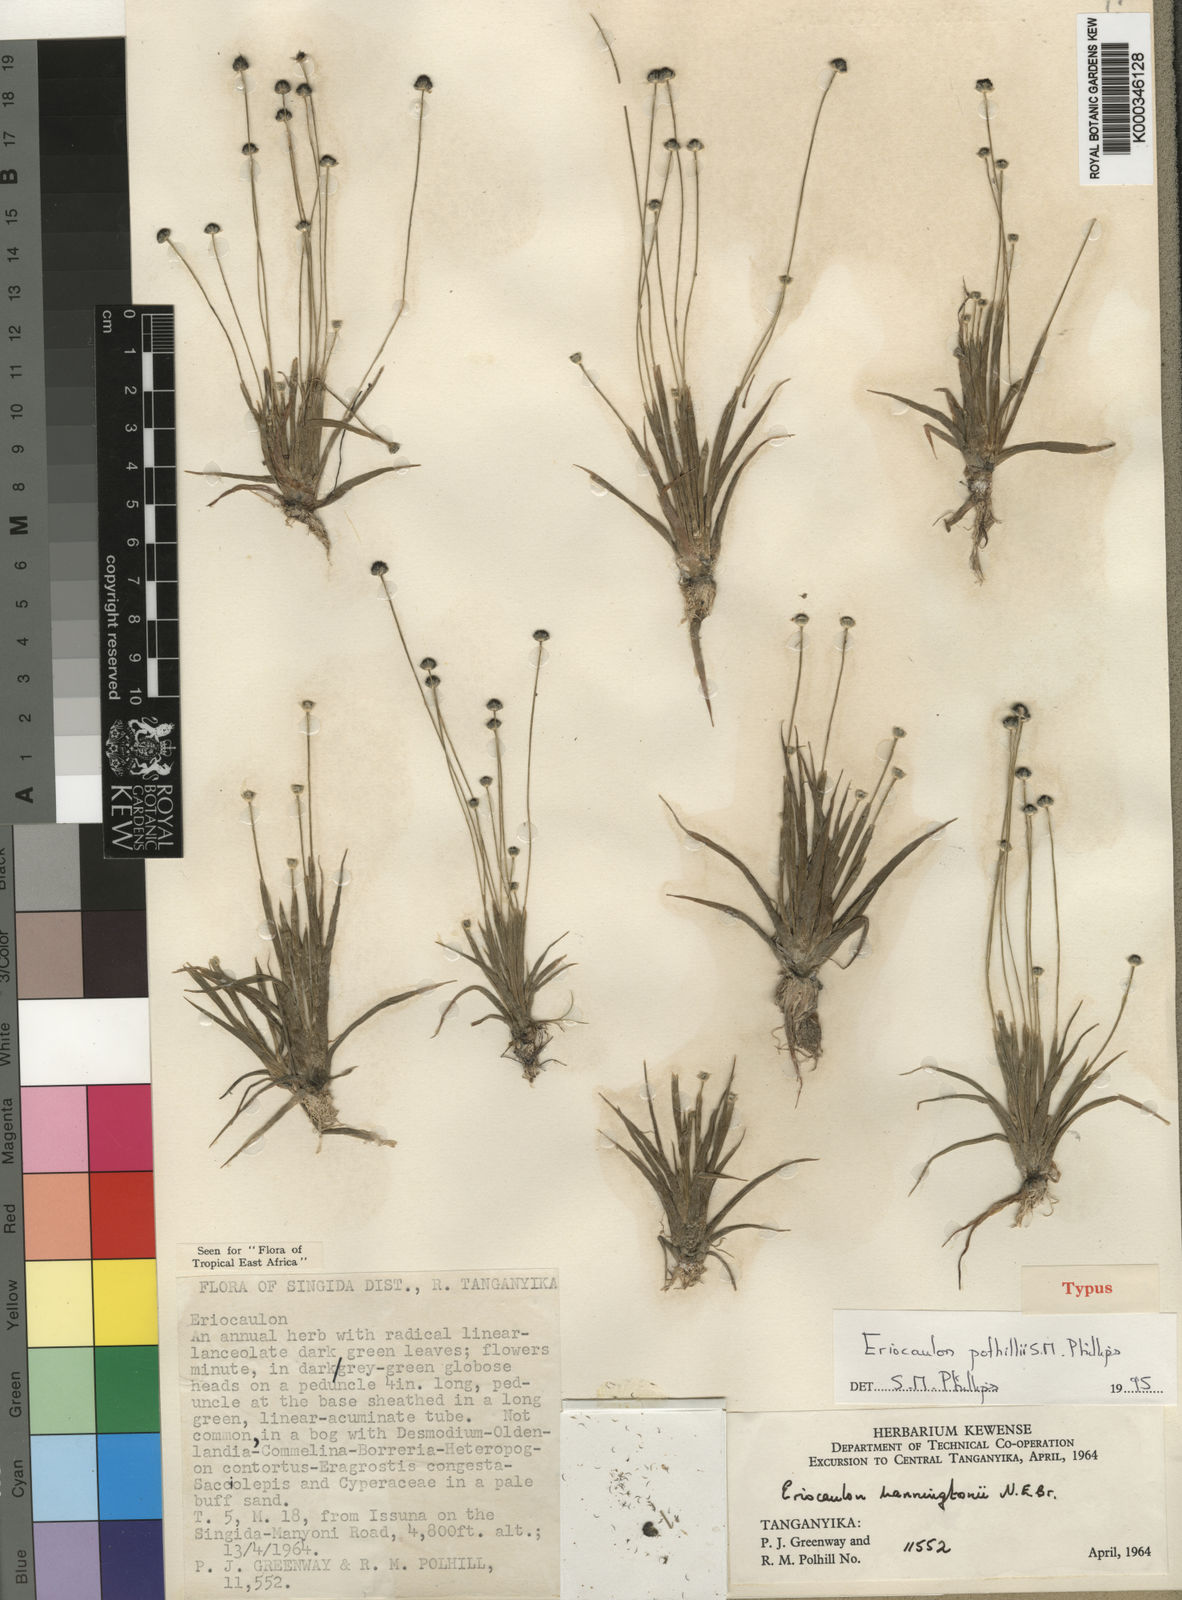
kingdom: Plantae
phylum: Tracheophyta
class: Liliopsida
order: Poales
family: Eriocaulaceae
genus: Eriocaulon
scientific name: Eriocaulon polhillii
